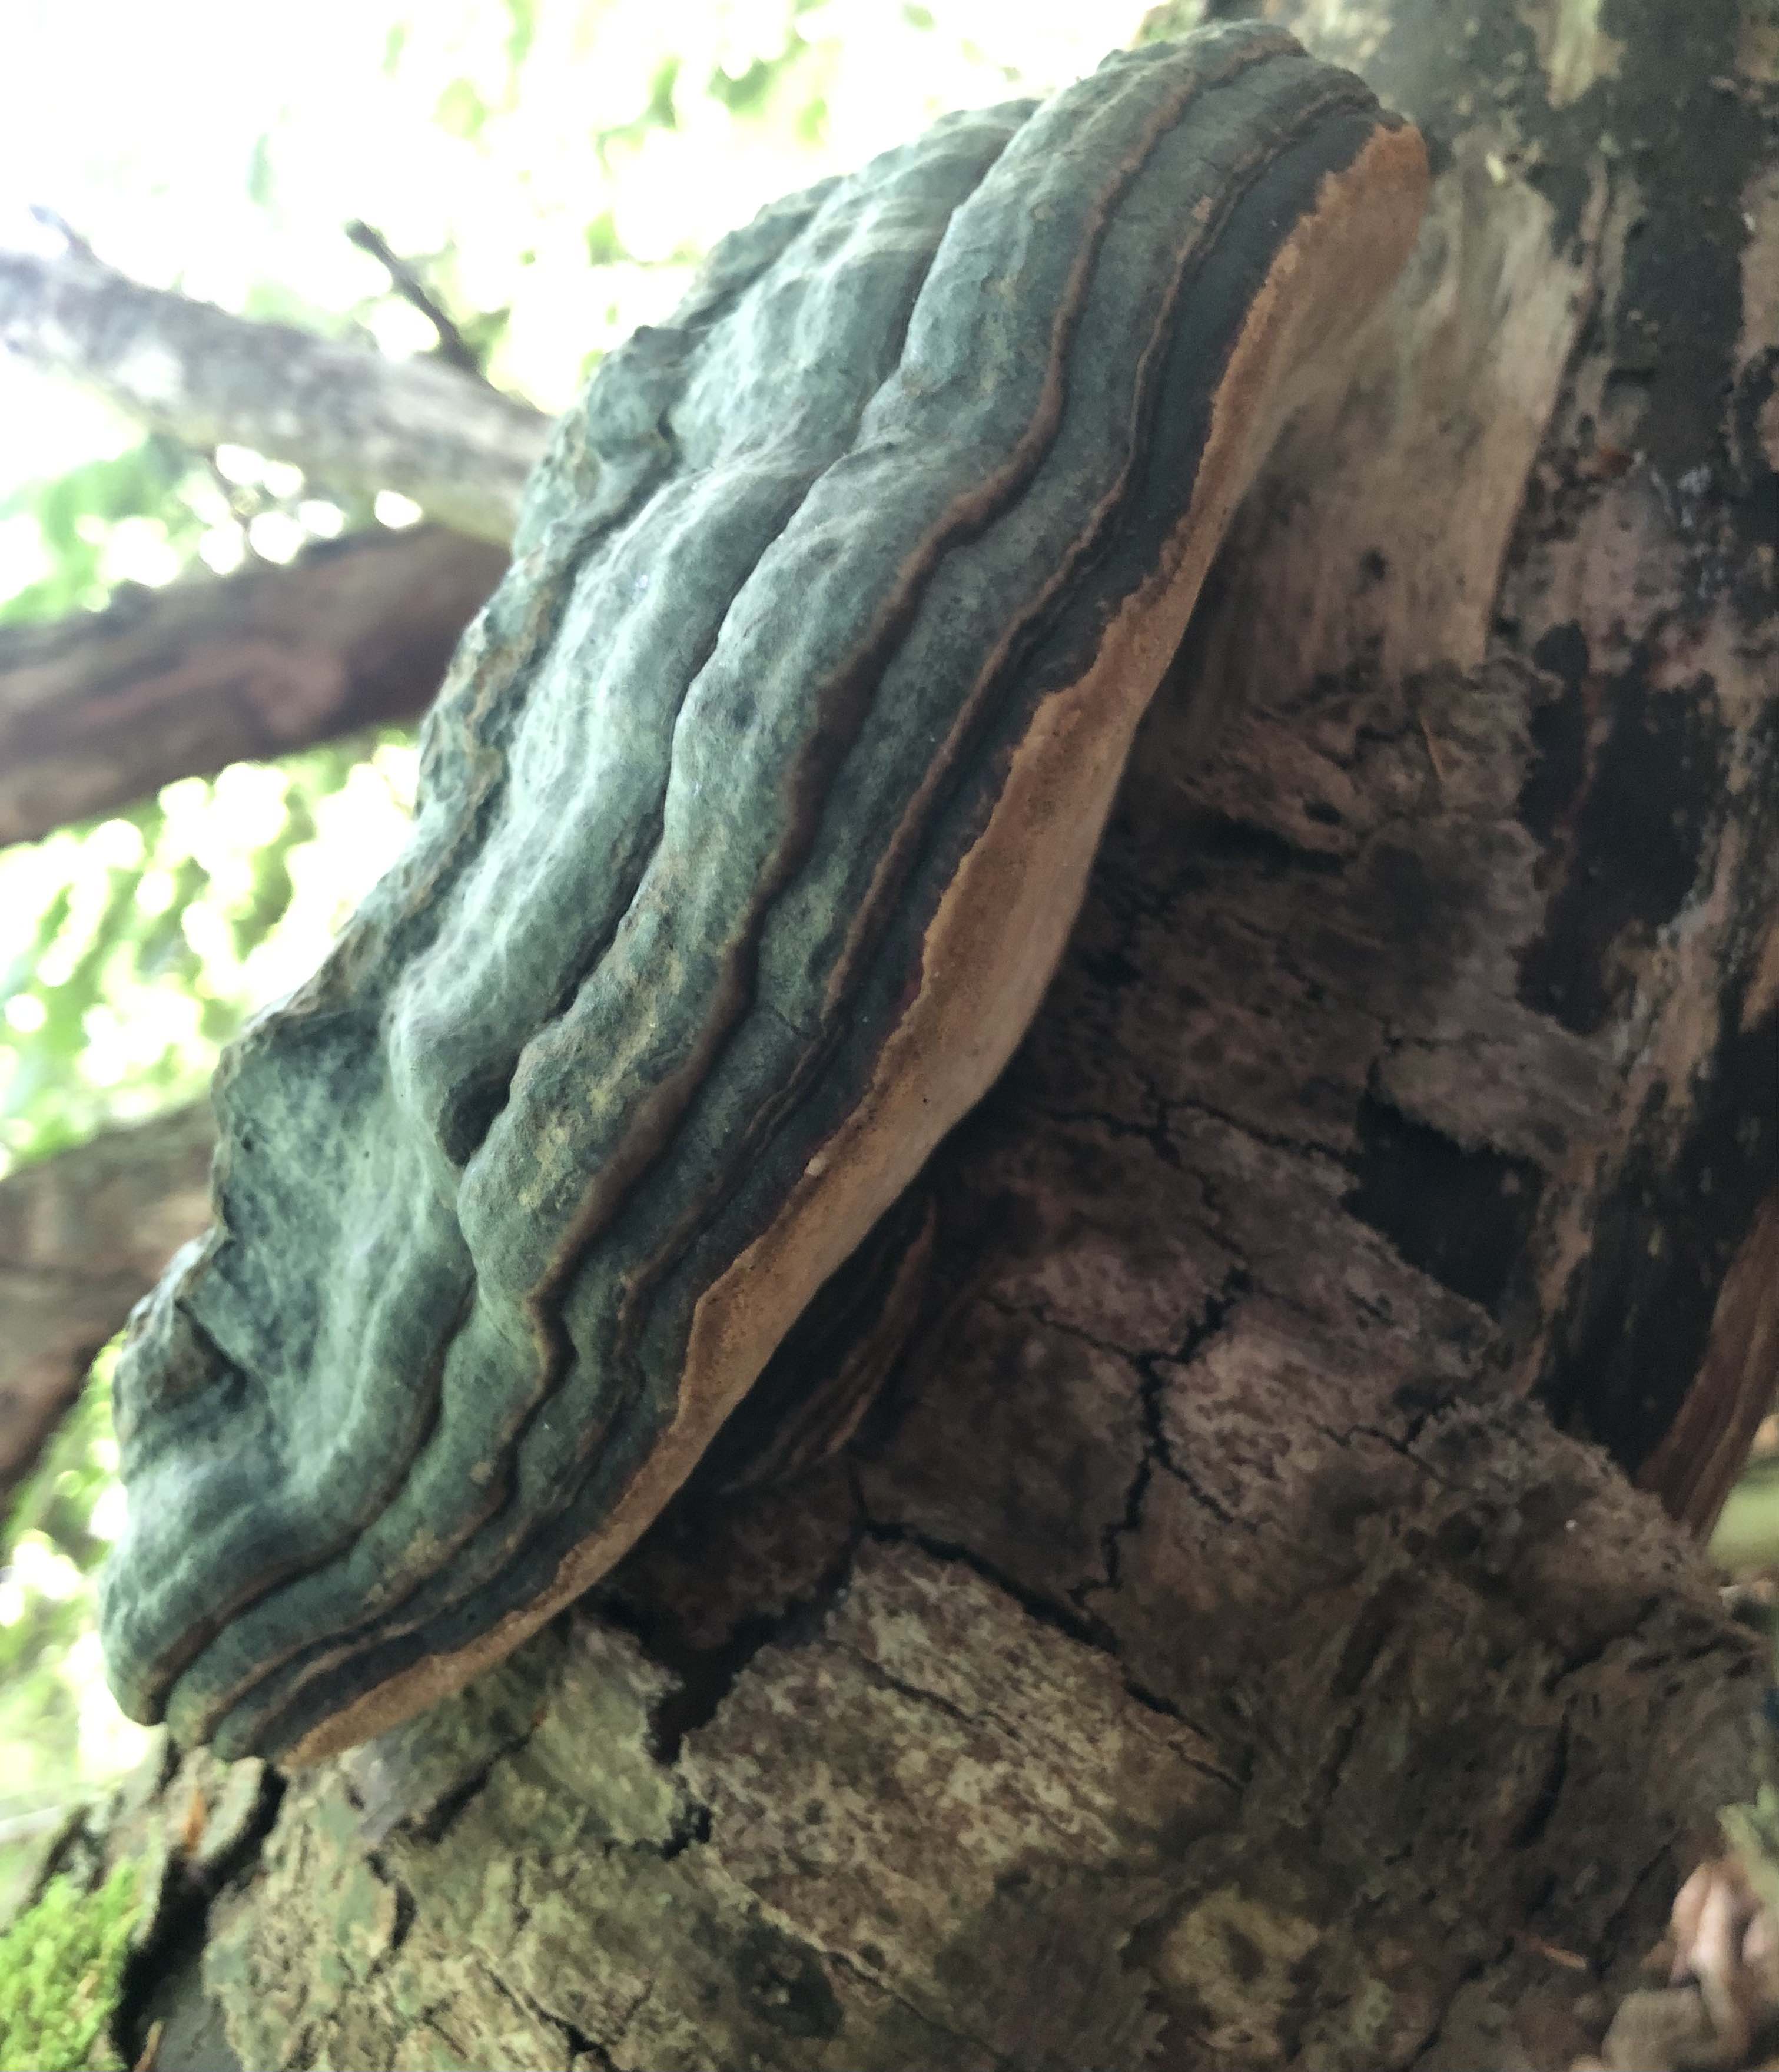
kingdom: Fungi
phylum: Basidiomycota
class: Agaricomycetes
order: Polyporales
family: Fomitopsidaceae
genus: Fomitopsis
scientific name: Fomitopsis pinicola
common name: randbæltet hovporesvamp
